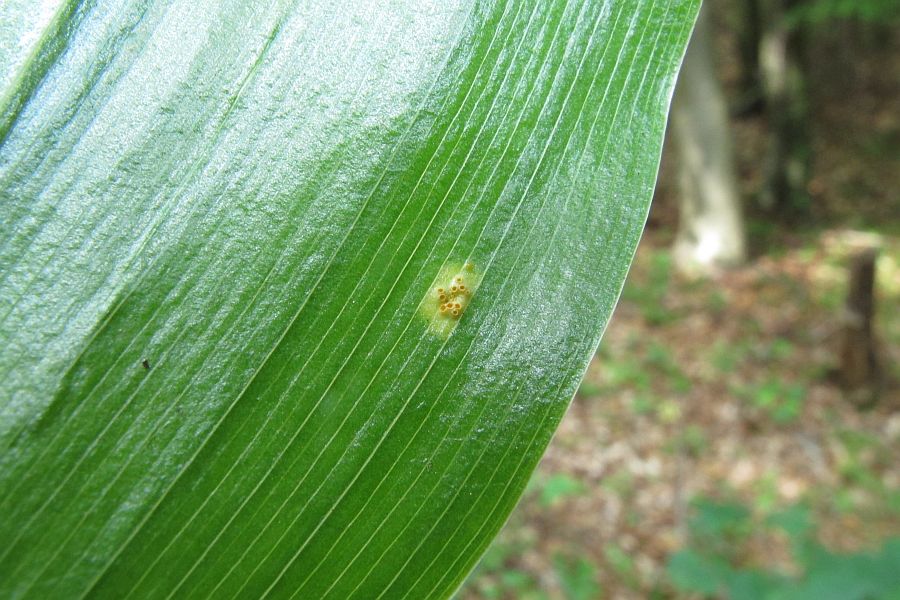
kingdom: Fungi
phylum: Basidiomycota
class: Pucciniomycetes
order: Pucciniales
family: Pucciniaceae
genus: Puccinia
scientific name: Puccinia sessilis
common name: Arum rust
